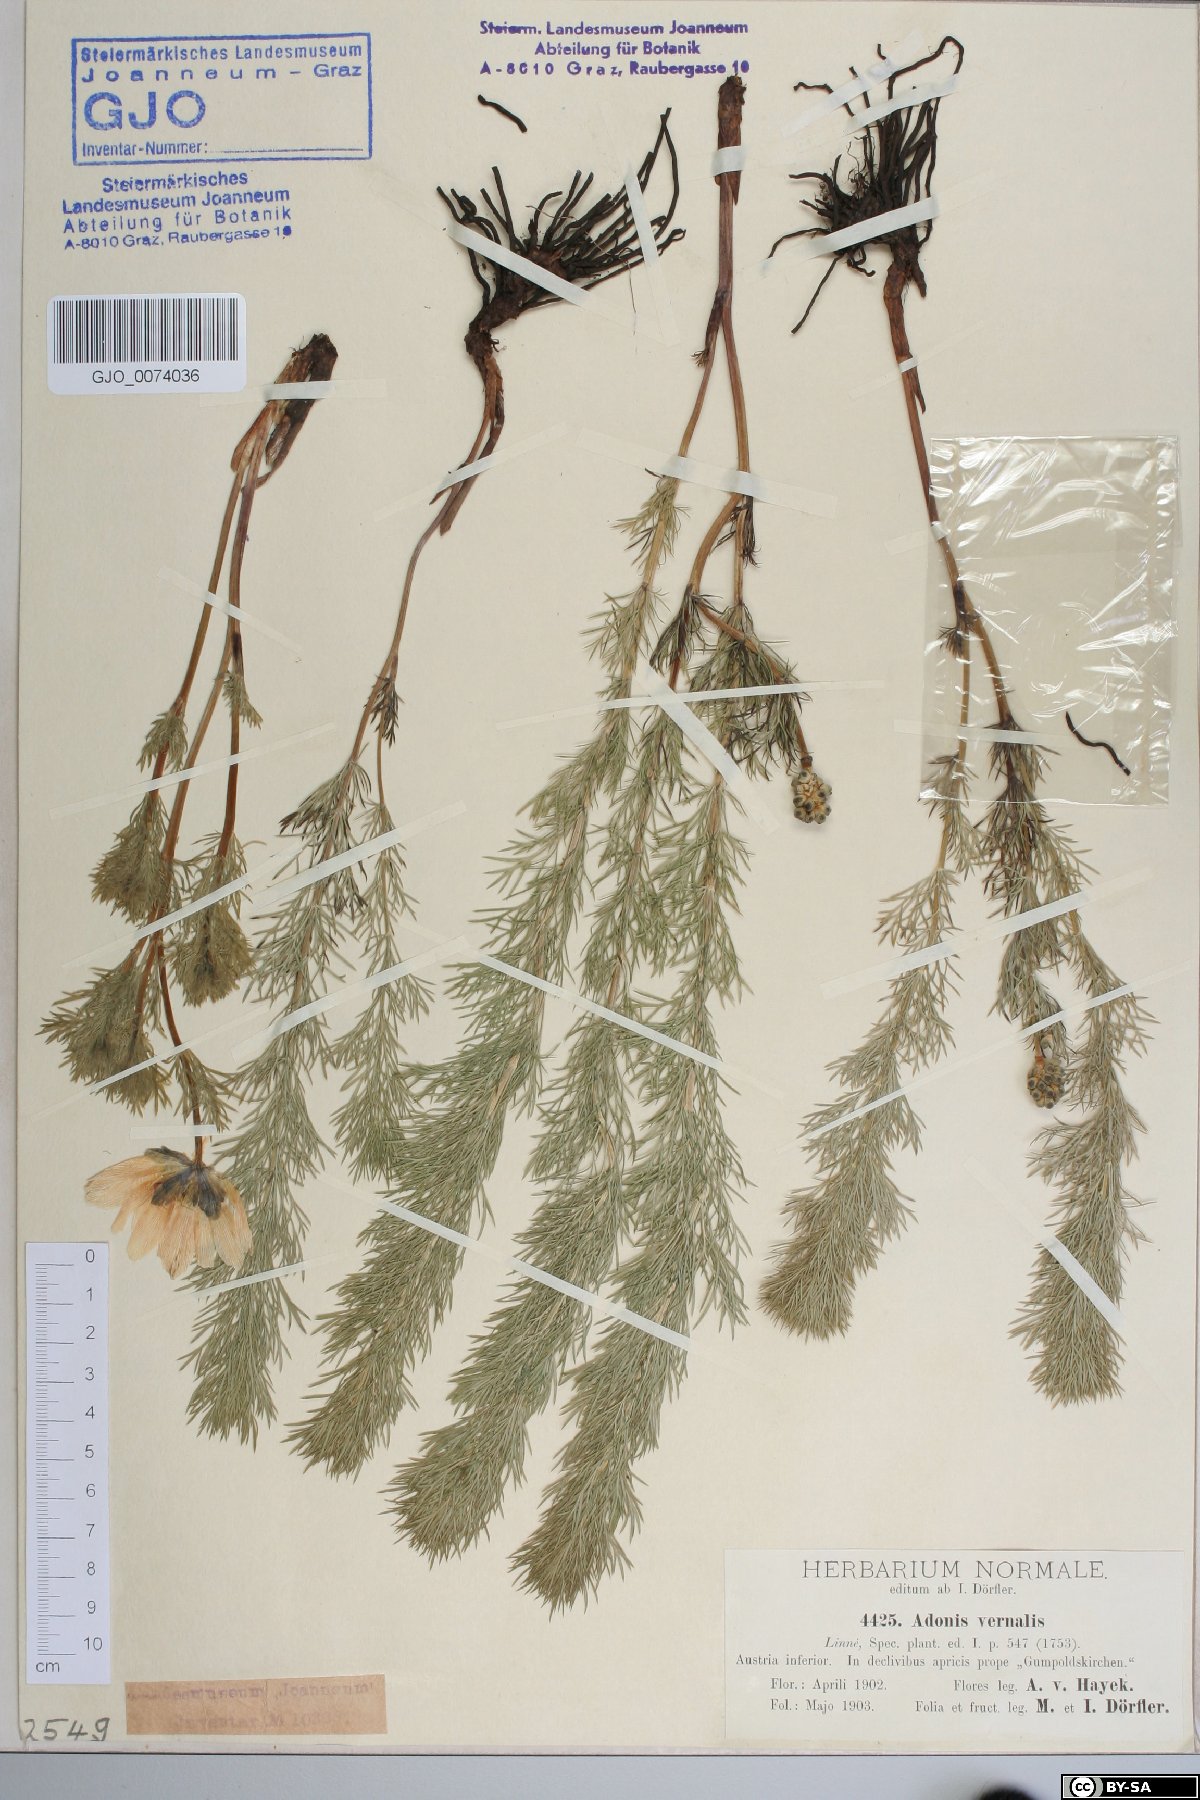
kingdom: Plantae
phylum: Tracheophyta
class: Magnoliopsida
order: Ranunculales
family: Ranunculaceae
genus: Adonis
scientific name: Adonis vernalis
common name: Yellow pheasants-eye
